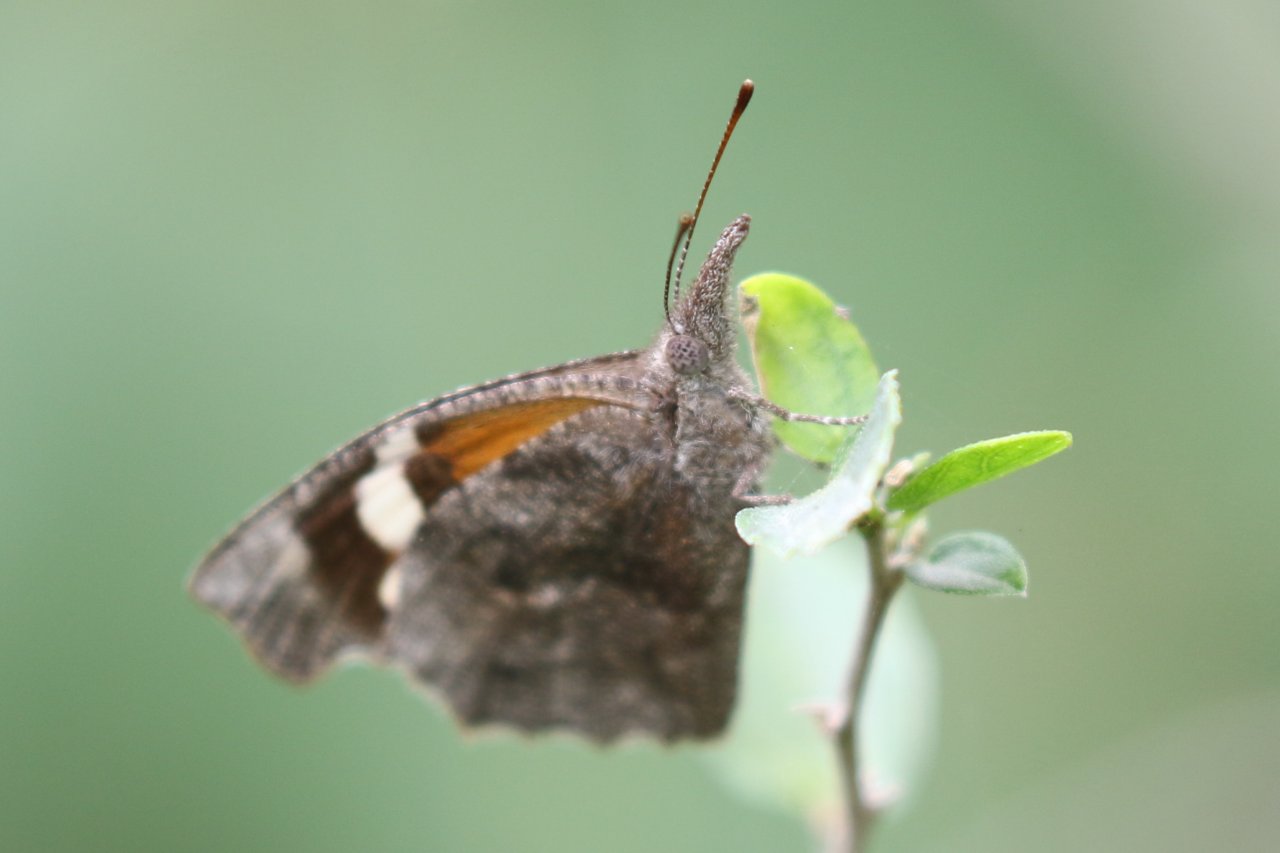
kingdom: Animalia
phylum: Arthropoda
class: Insecta
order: Lepidoptera
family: Nymphalidae
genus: Libytheana
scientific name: Libytheana carinenta
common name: American Snout
